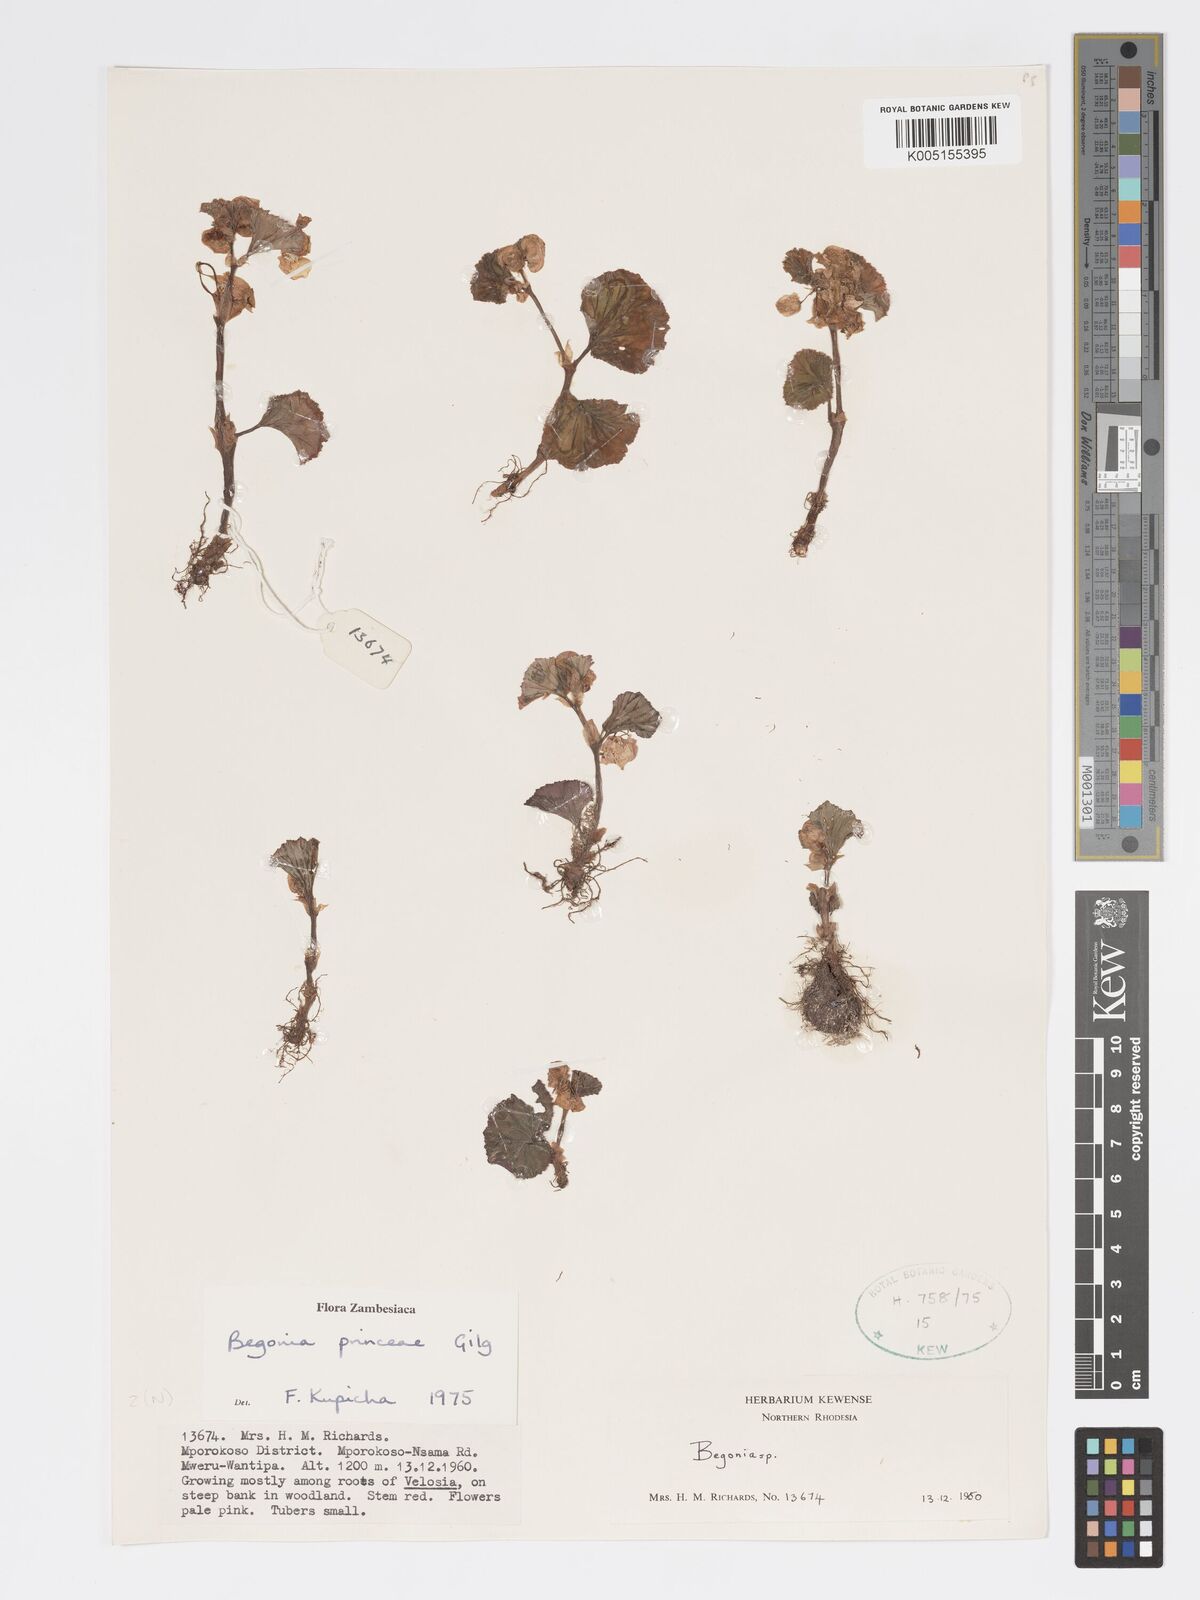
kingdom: Plantae
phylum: Tracheophyta
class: Magnoliopsida
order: Cucurbitales
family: Begoniaceae
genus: Begonia
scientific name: Begonia princeae
